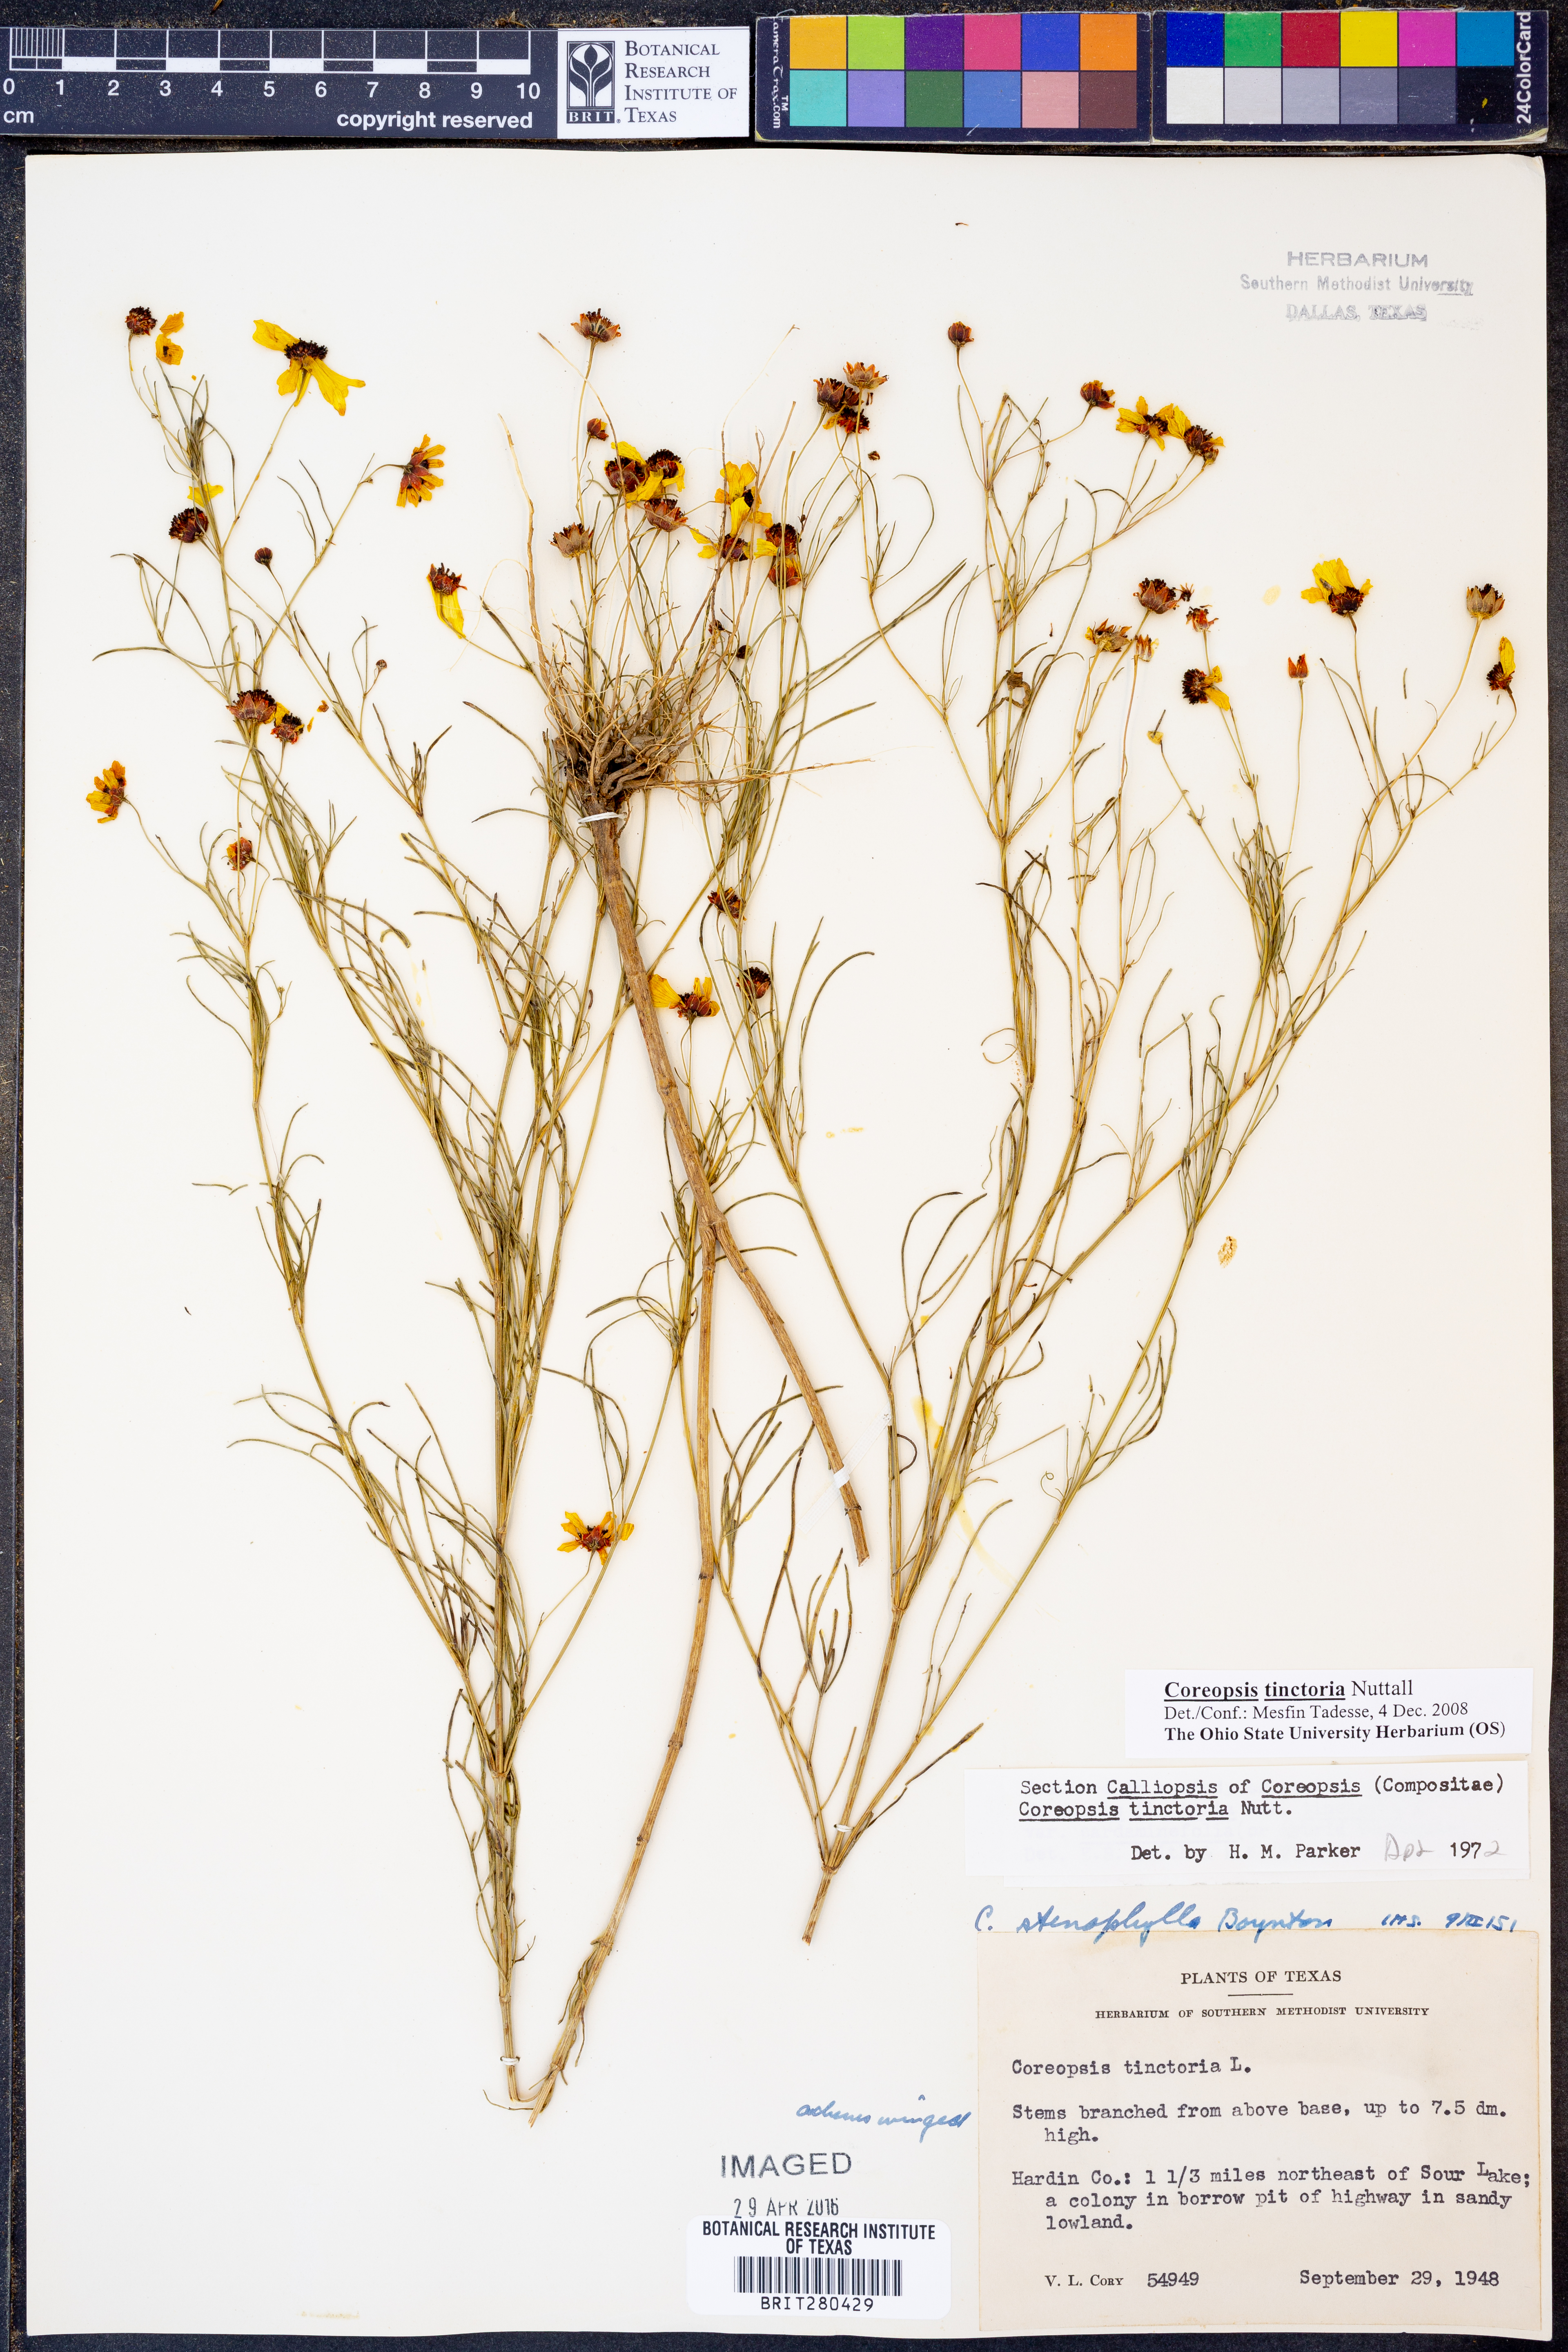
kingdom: Plantae
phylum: Tracheophyta
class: Magnoliopsida
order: Asterales
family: Asteraceae
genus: Coreopsis
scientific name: Coreopsis tinctoria
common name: Garden tickseed
